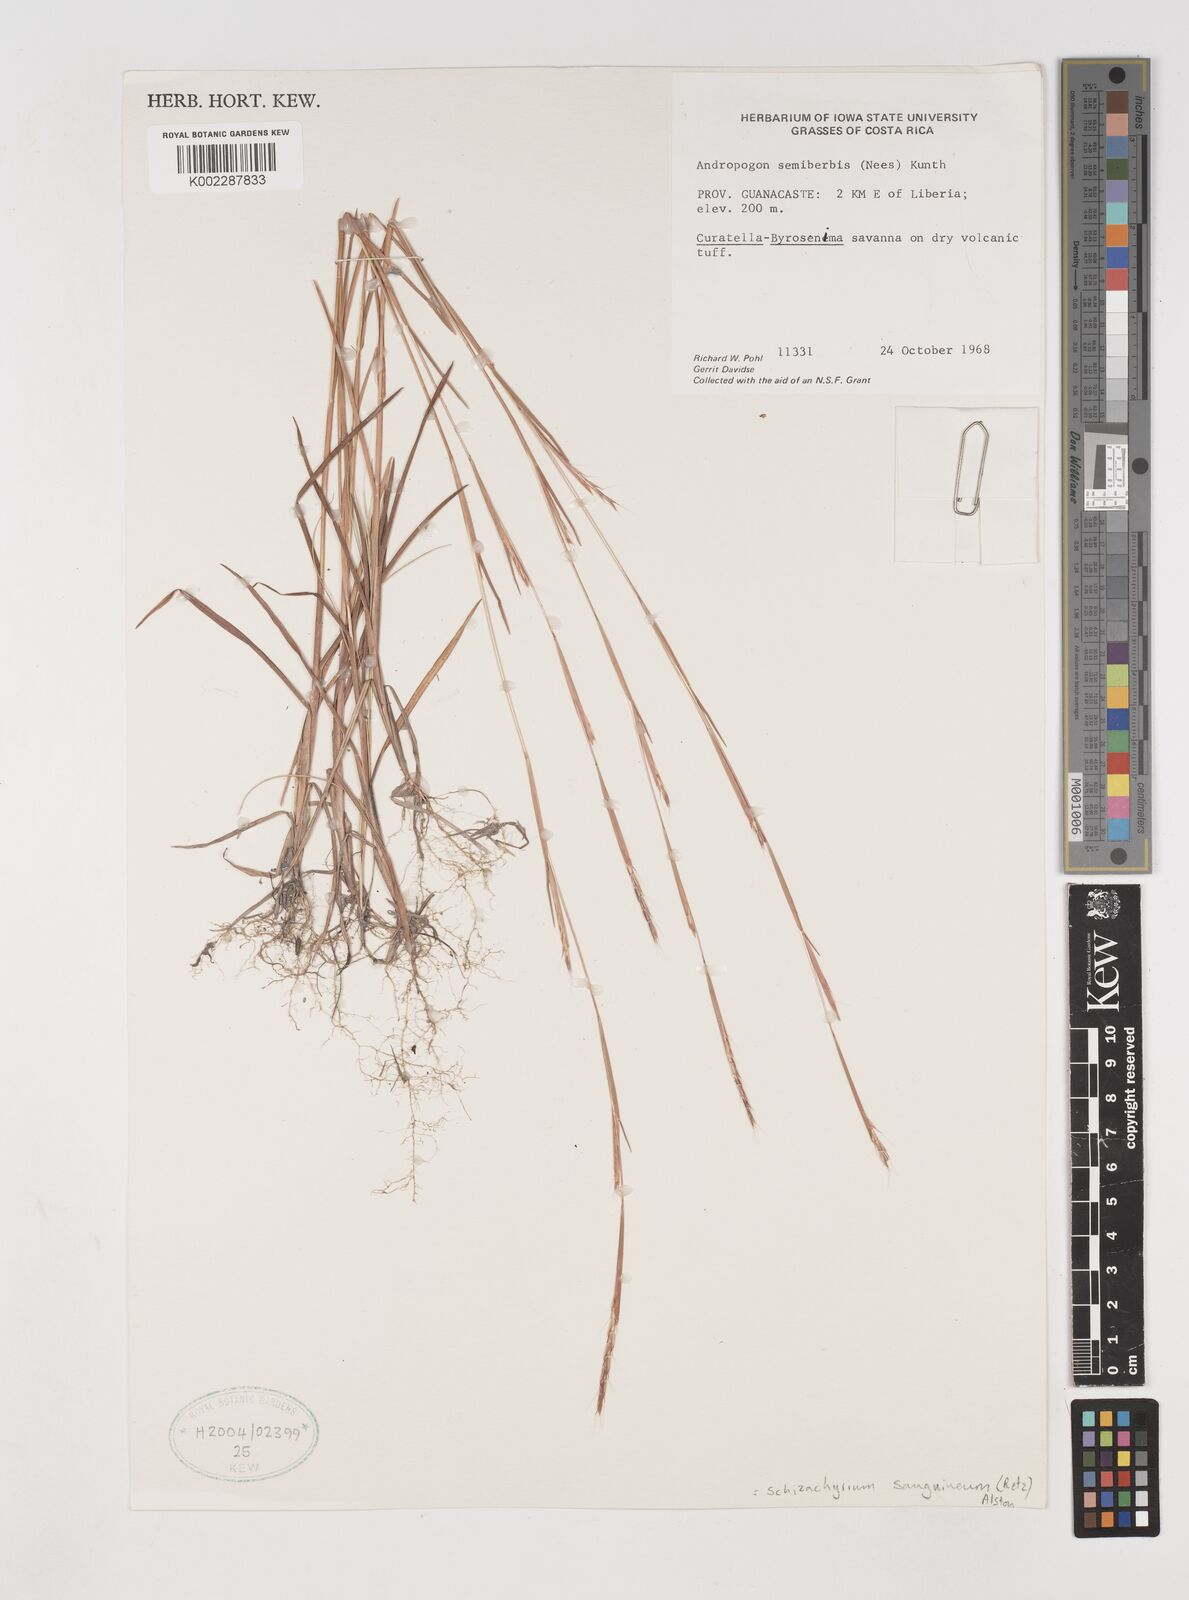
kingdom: Plantae
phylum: Tracheophyta
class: Liliopsida
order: Poales
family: Poaceae
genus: Schizachyrium
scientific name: Schizachyrium sanguineum
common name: Crimson bluestem
